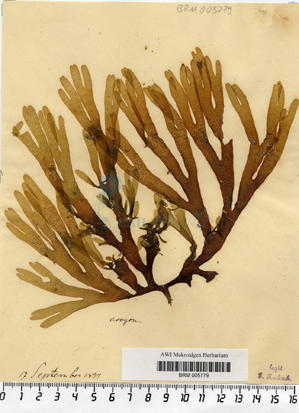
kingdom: Chromista
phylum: Ochrophyta
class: Phaeophyceae
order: Dictyotales
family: Dictyotaceae
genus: Dictyota
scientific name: Dictyota dichotoma
